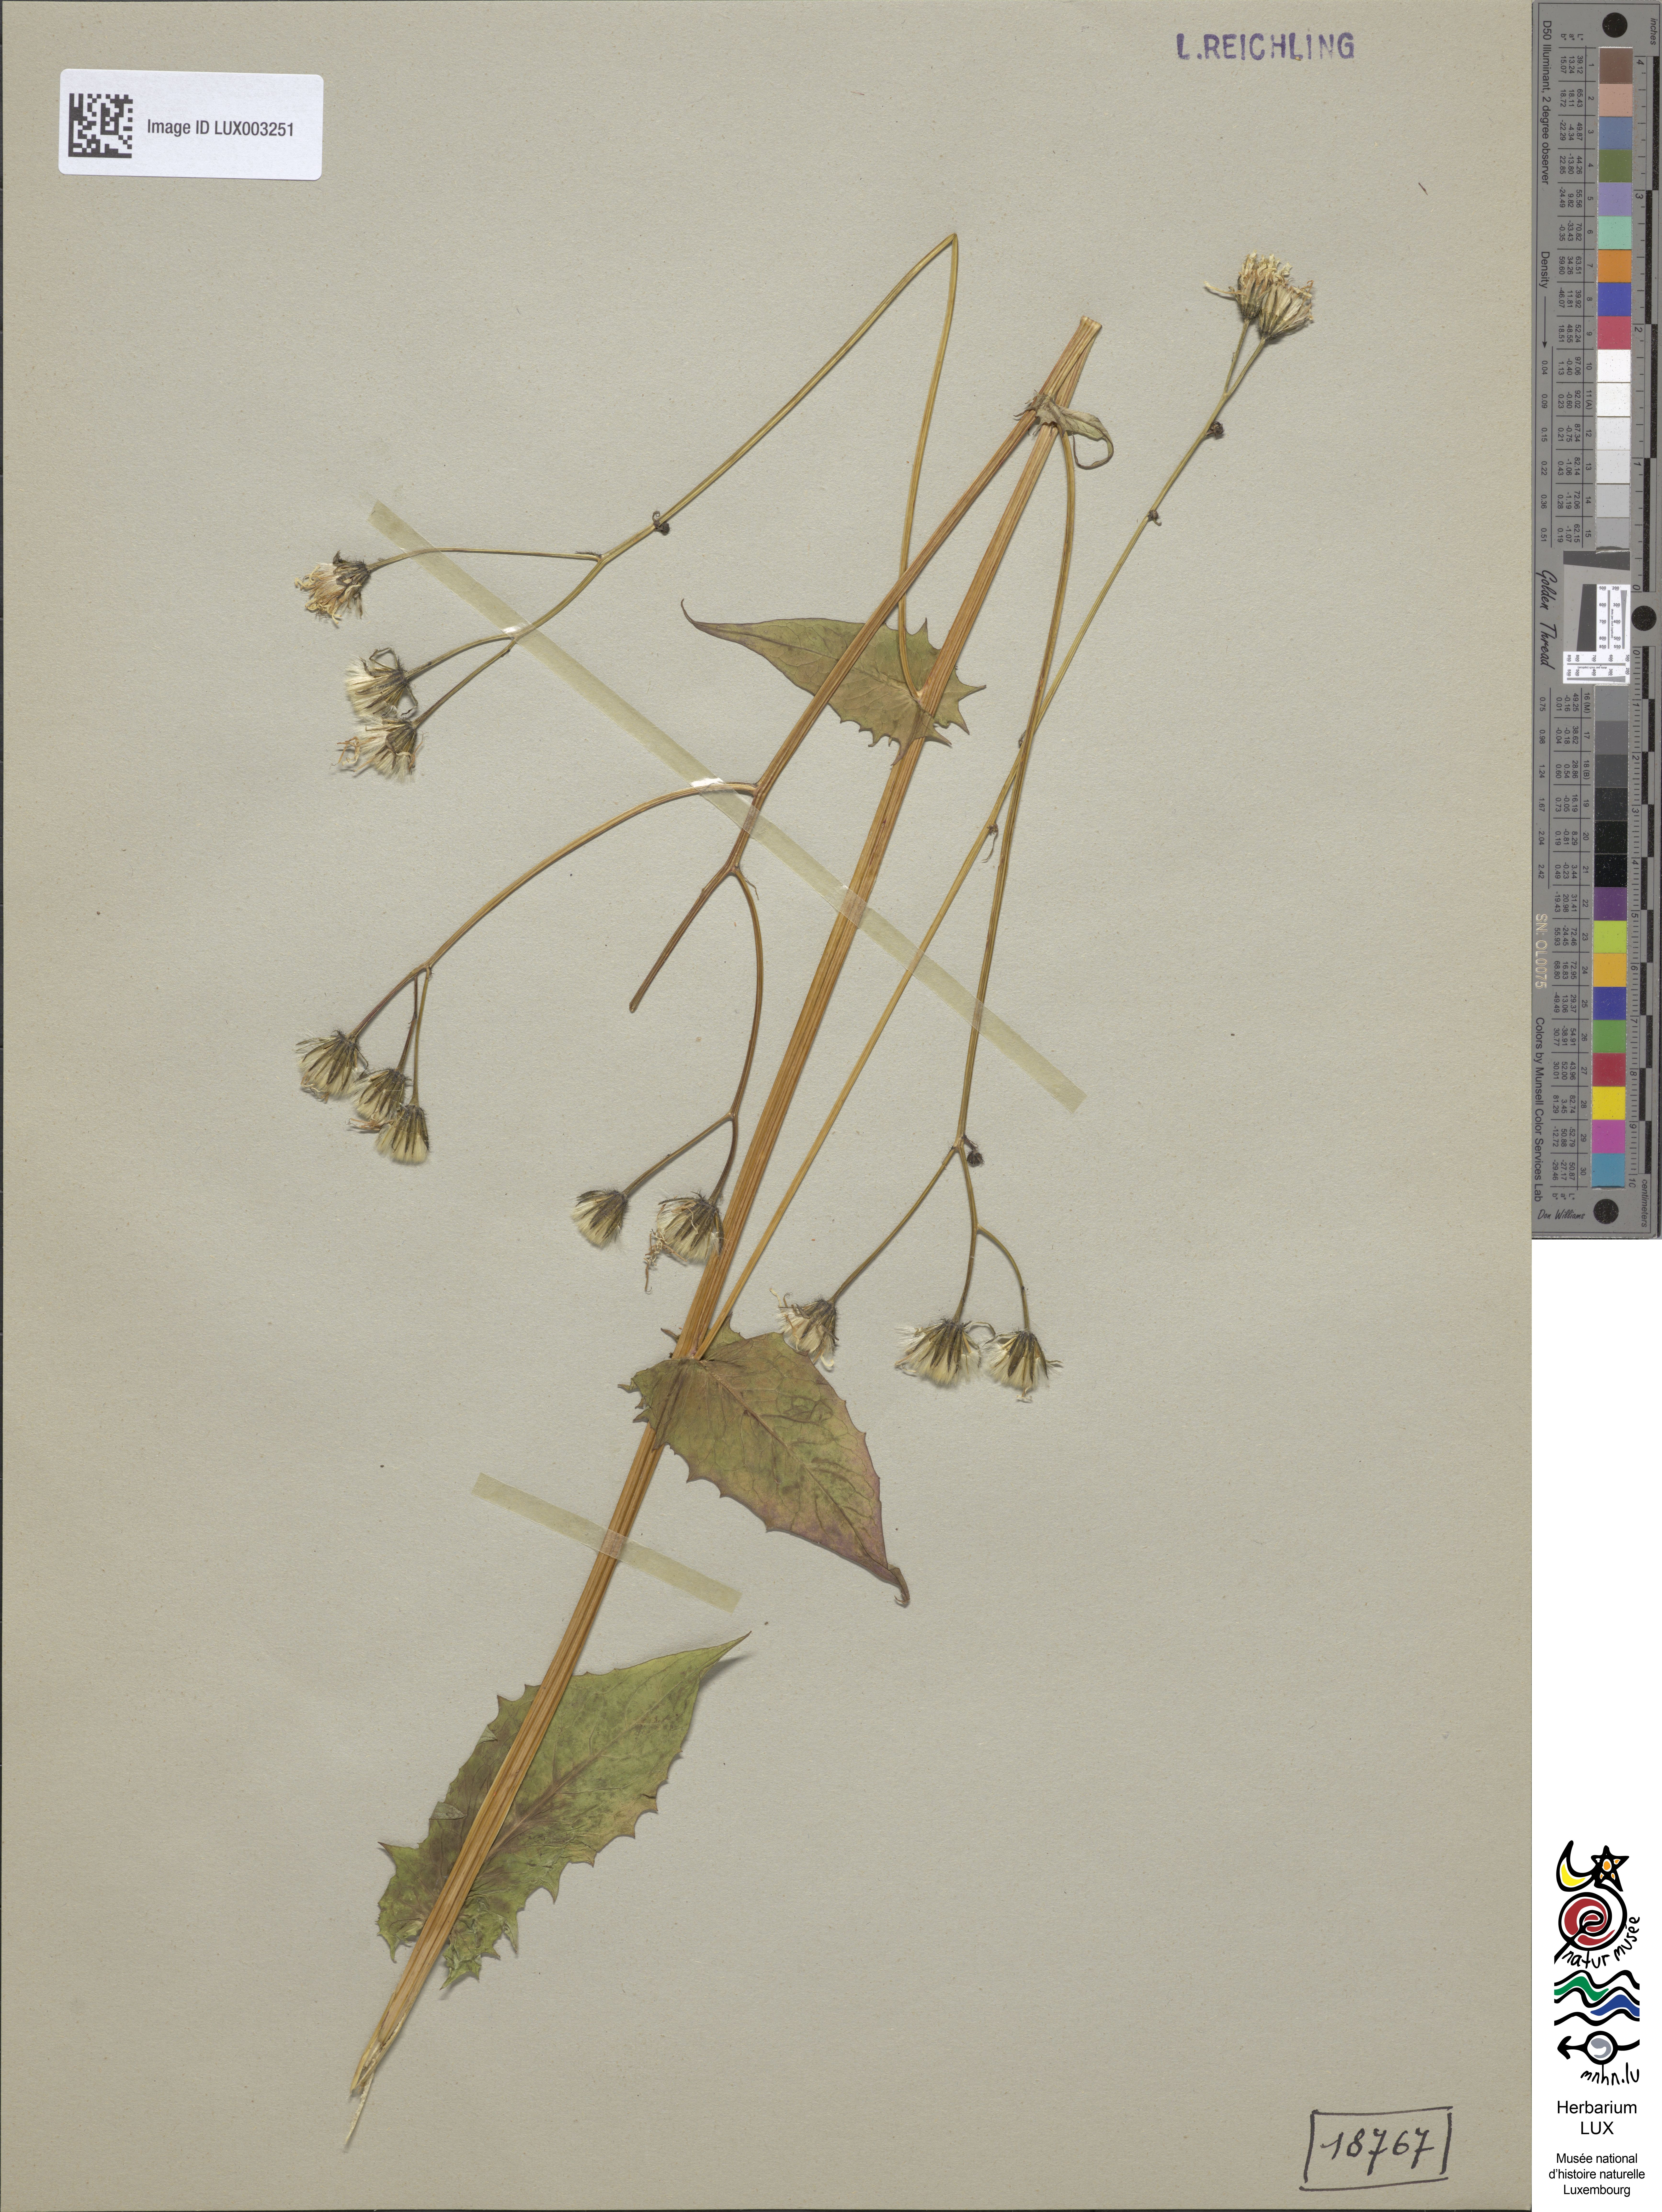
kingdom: Plantae
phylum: Tracheophyta
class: Magnoliopsida
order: Asterales
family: Asteraceae
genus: Crepis
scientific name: Crepis paludosa
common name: Marsh hawk's-beard
